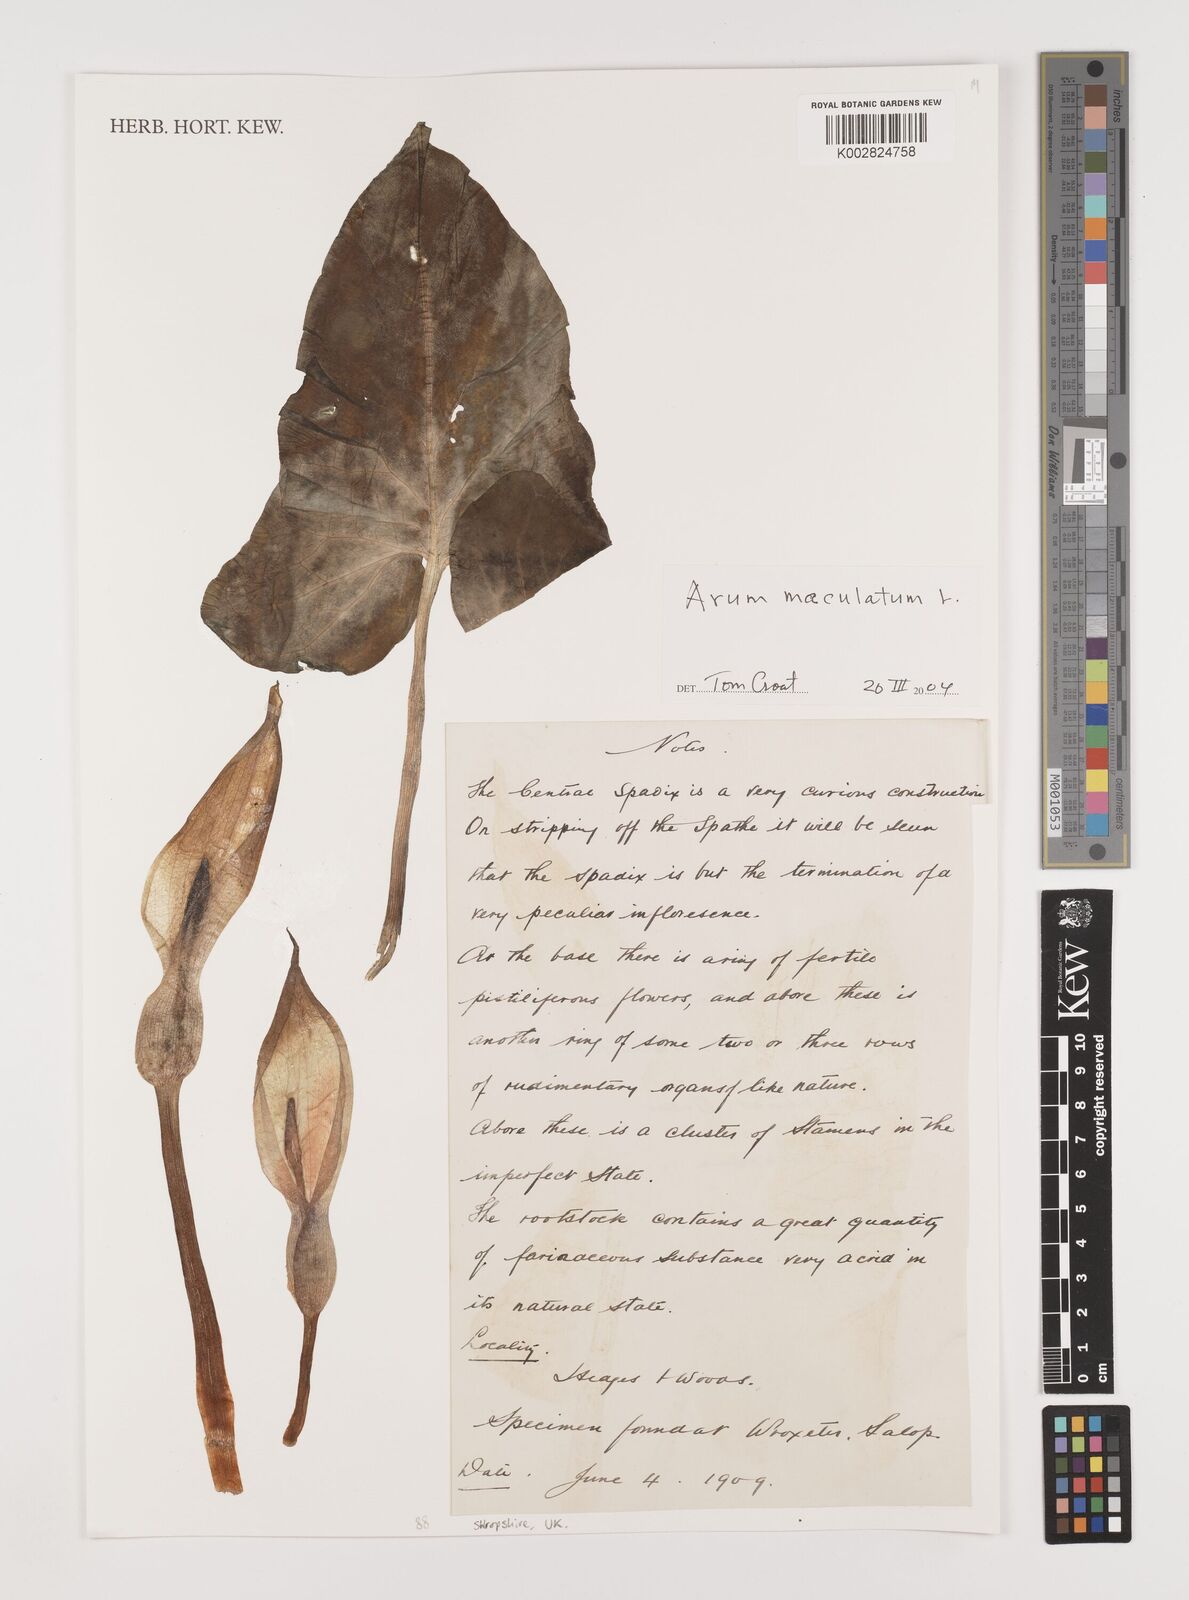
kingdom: Plantae
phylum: Tracheophyta
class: Liliopsida
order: Alismatales
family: Araceae
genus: Arum
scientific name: Arum maculatum
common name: Lords-and-ladies
